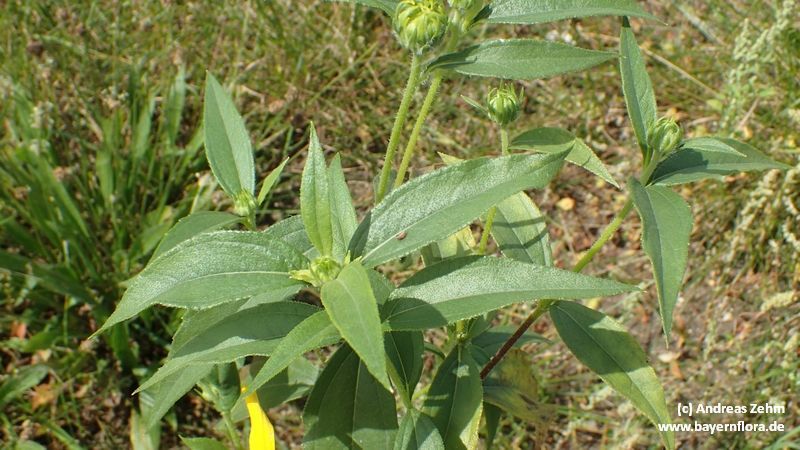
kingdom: Plantae
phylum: Tracheophyta
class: Magnoliopsida
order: Asterales
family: Asteraceae
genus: Helianthus
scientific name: Helianthus tuberosus
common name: Jerusalem artichoke
